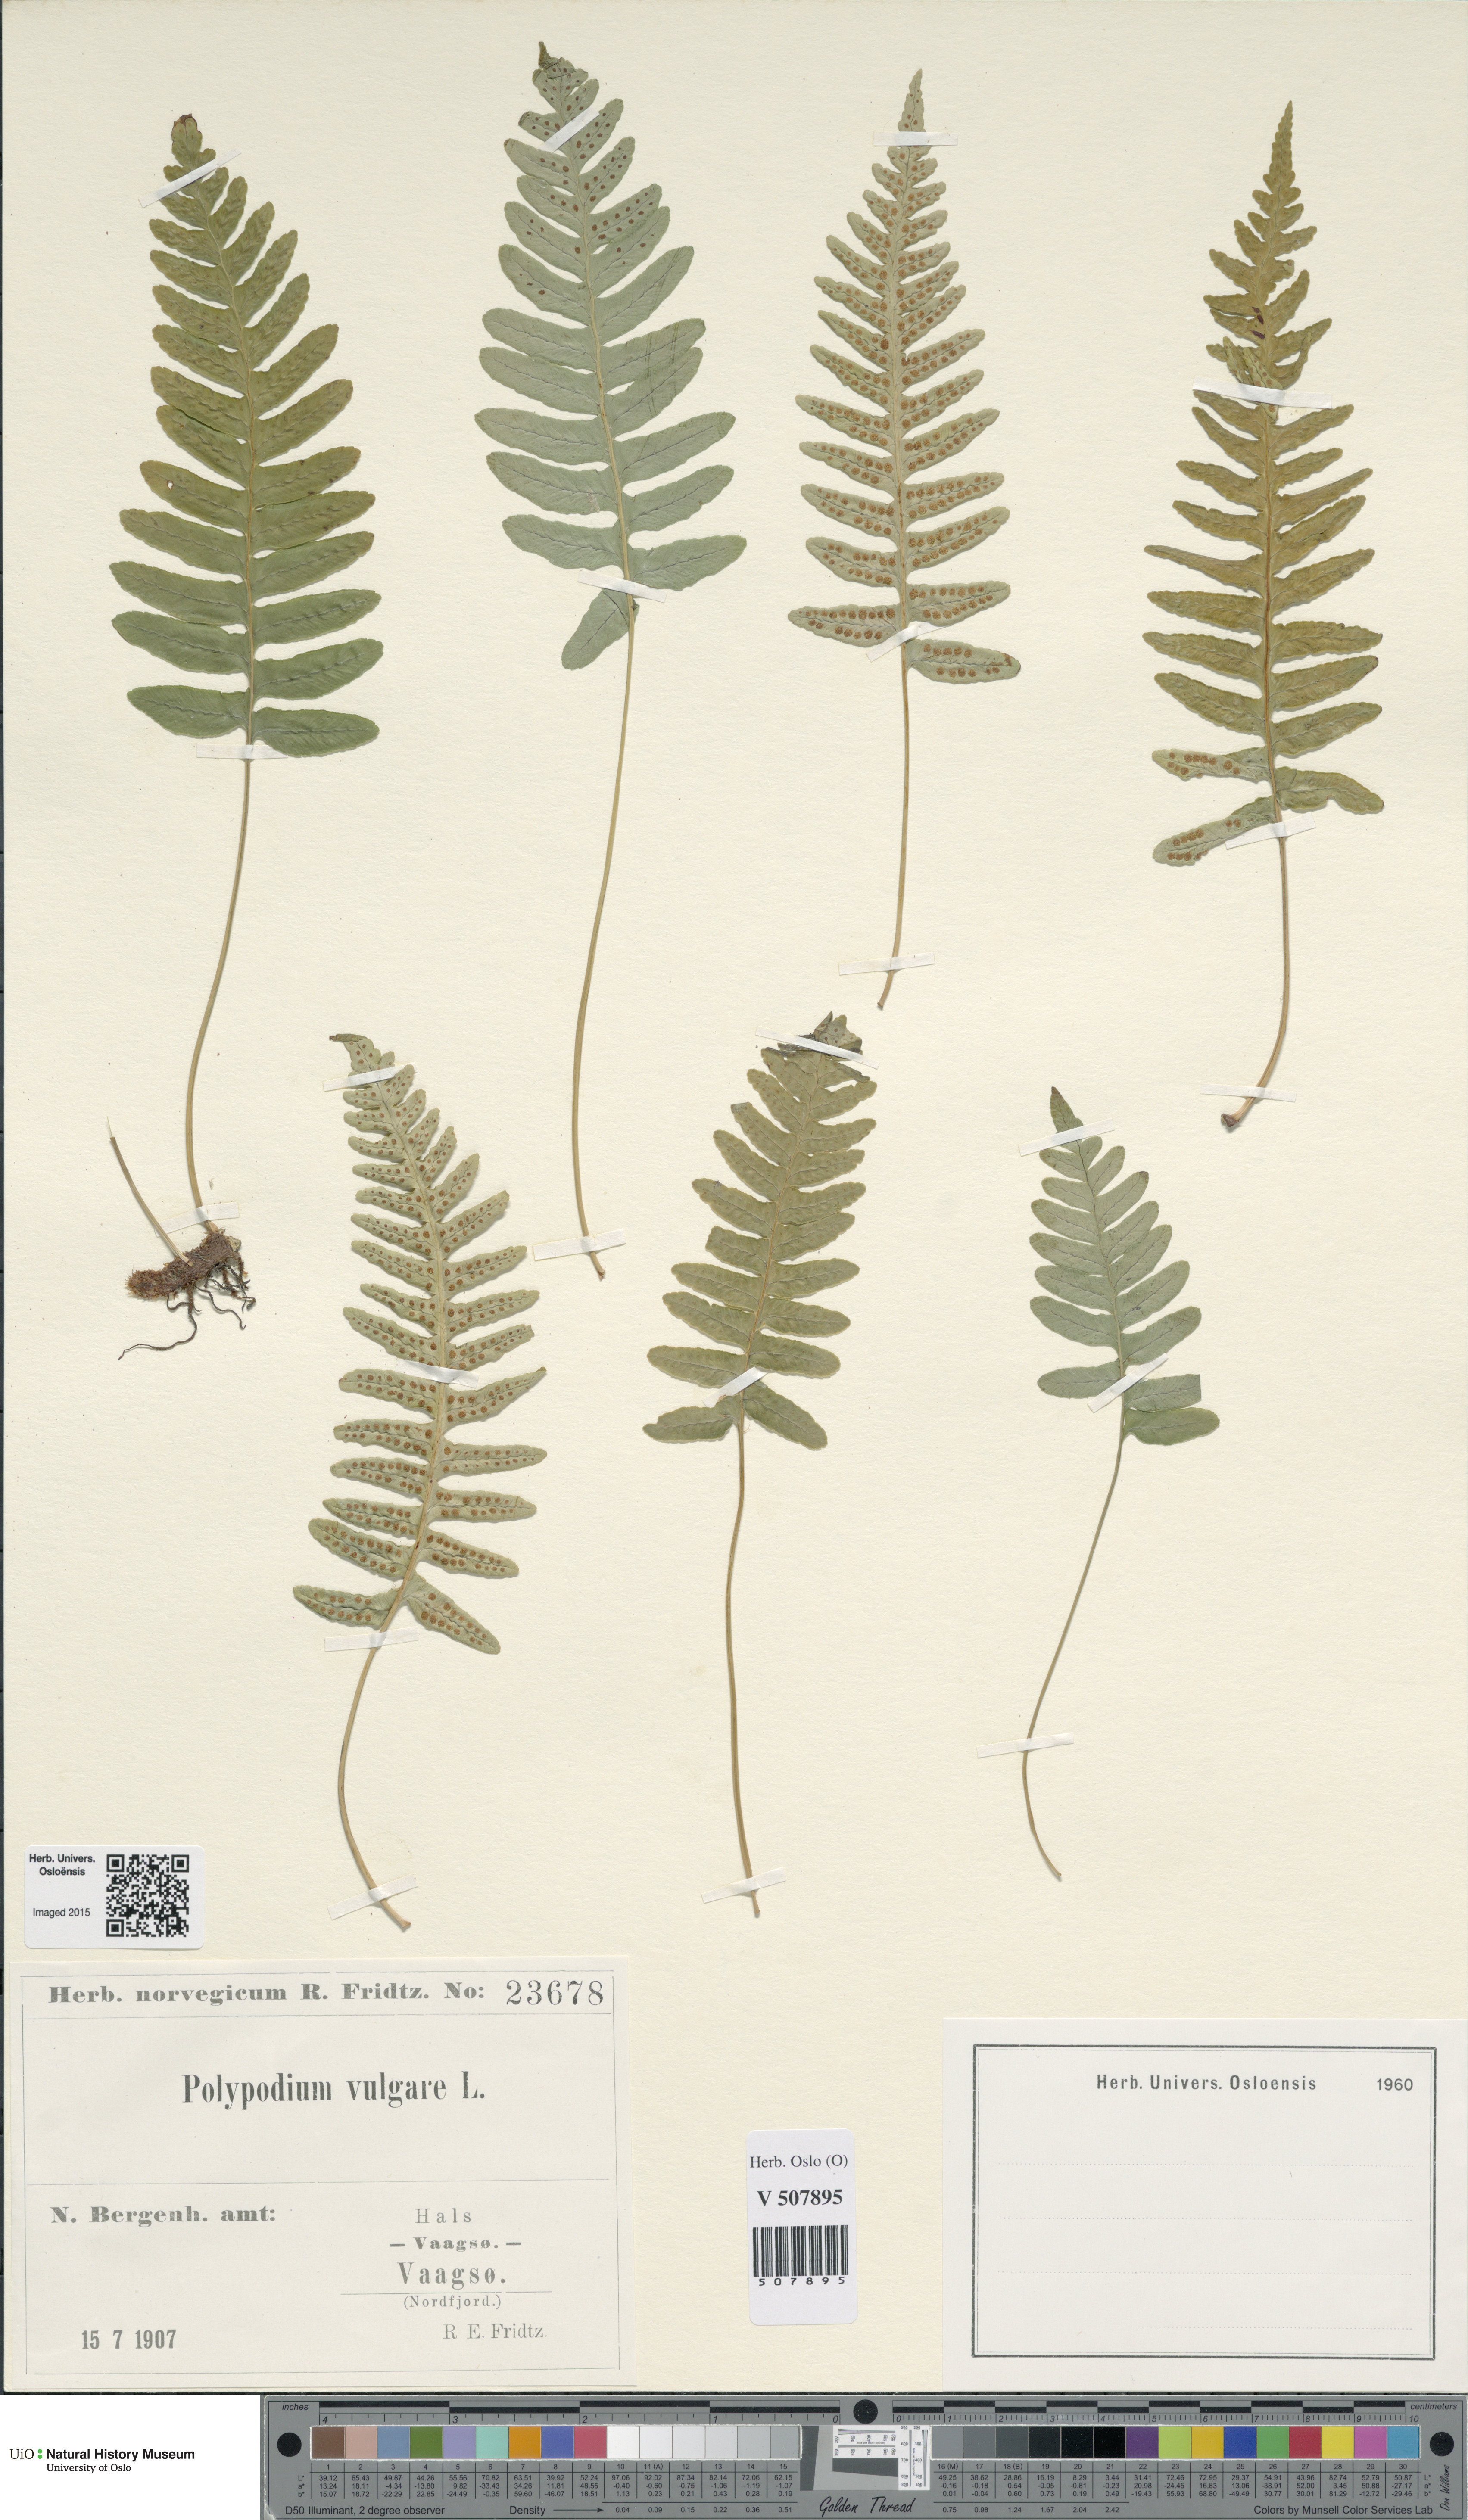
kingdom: Plantae
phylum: Tracheophyta
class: Polypodiopsida
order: Polypodiales
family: Polypodiaceae
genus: Polypodium
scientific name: Polypodium vulgare
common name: Common polypody
